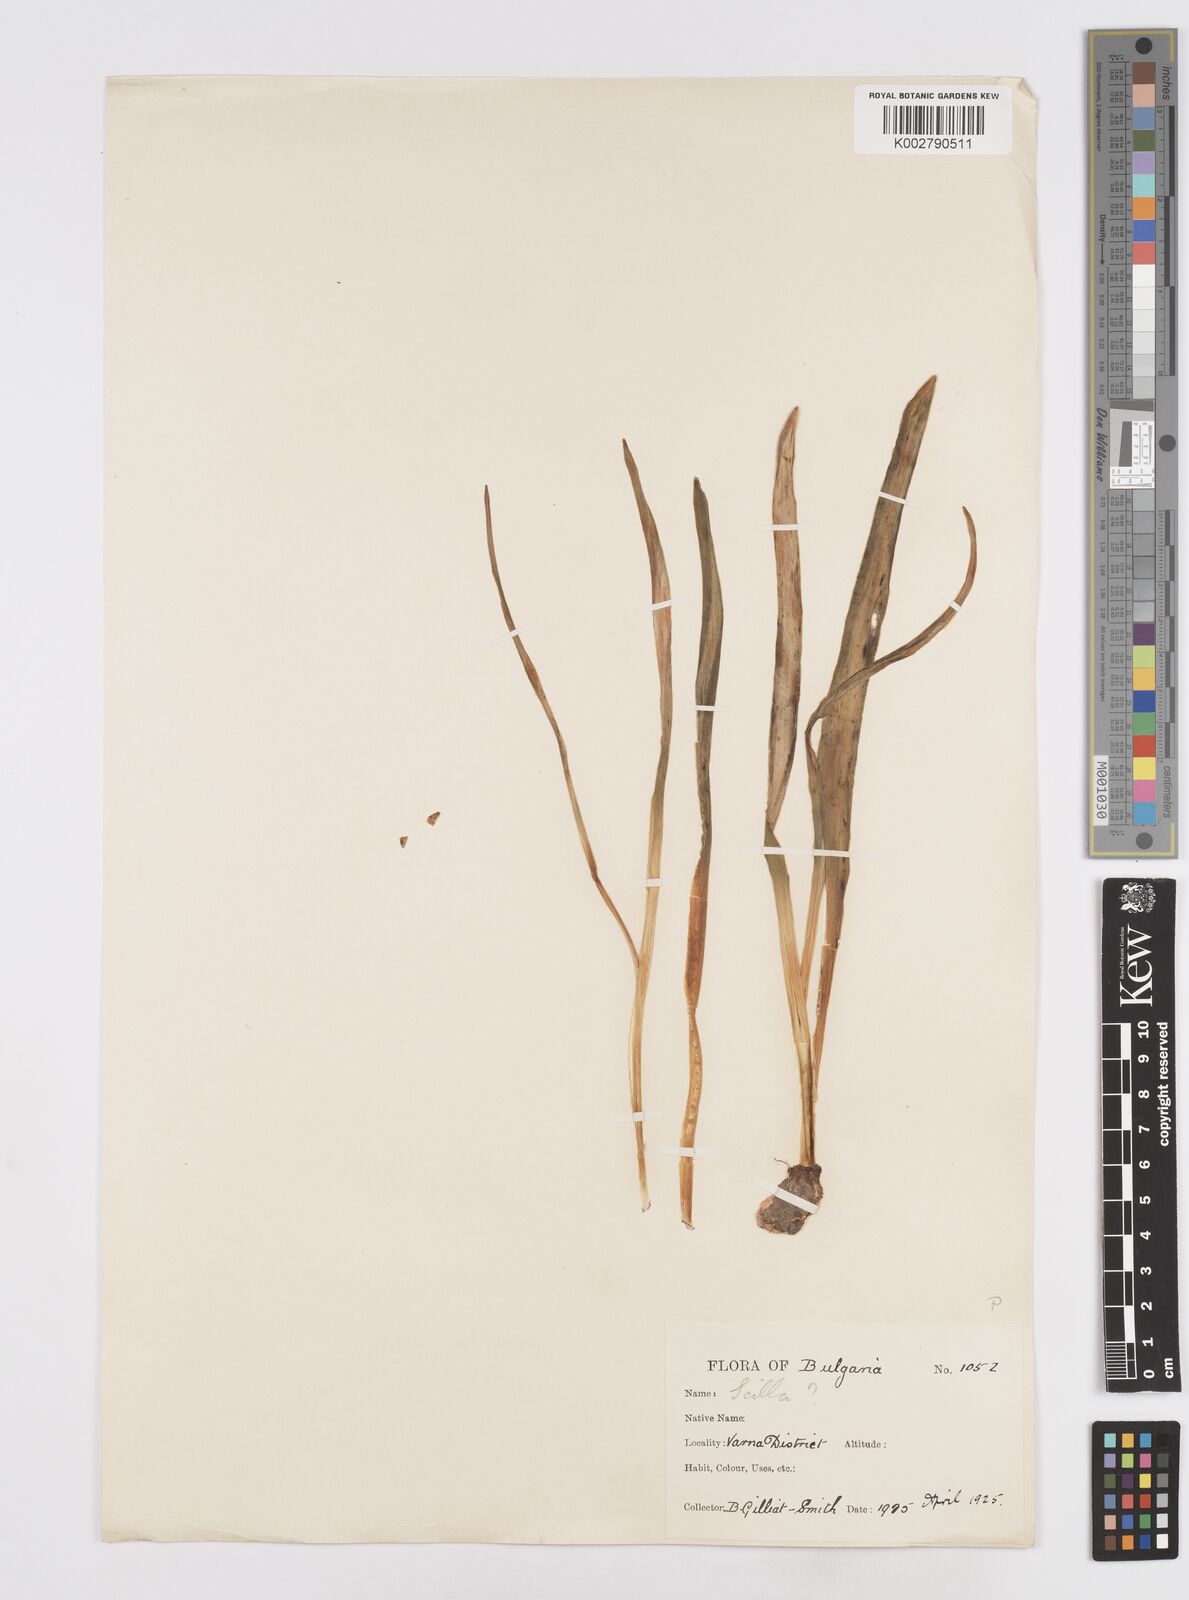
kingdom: Plantae
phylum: Tracheophyta
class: Liliopsida
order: Asparagales
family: Asparagaceae
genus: Scilla
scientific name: Scilla bithynica
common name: Turkish squill
